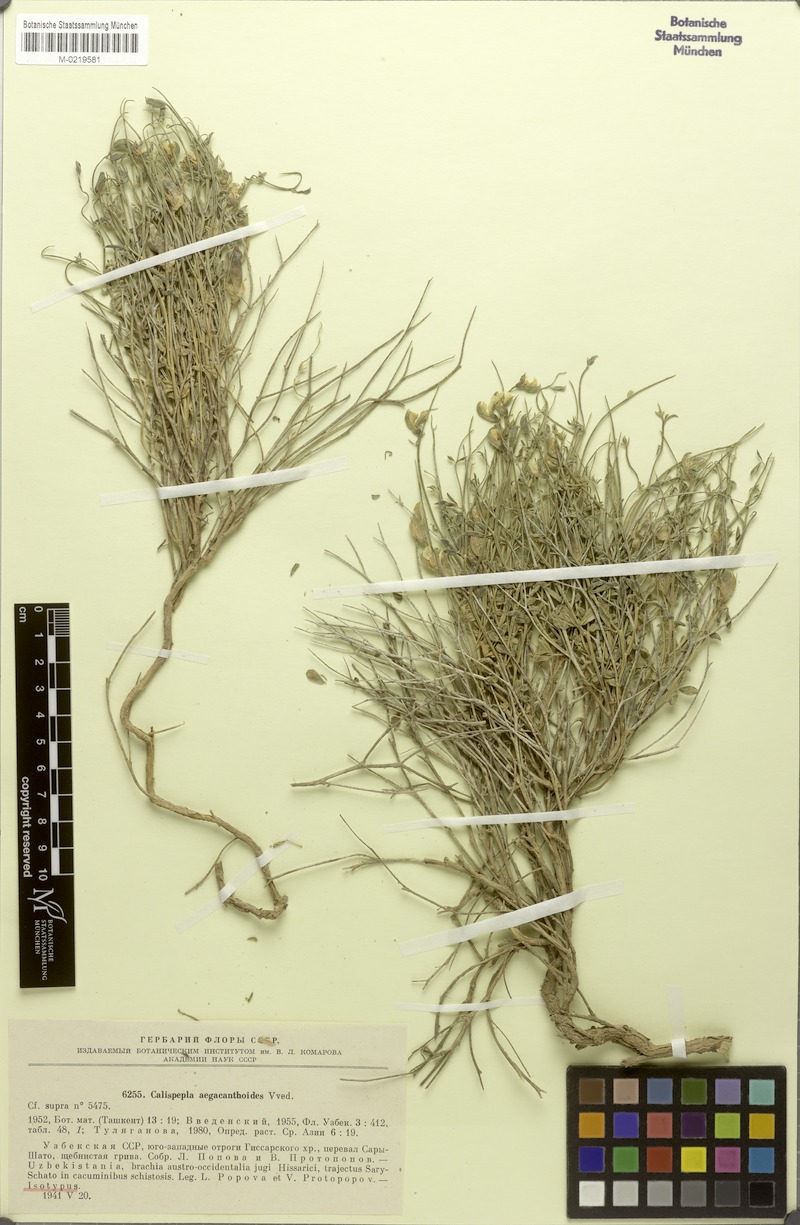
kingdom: Plantae
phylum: Tracheophyta
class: Magnoliopsida
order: Fabales
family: Fabaceae
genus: Argyrolobium
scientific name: Argyrolobium aegacanthoides
